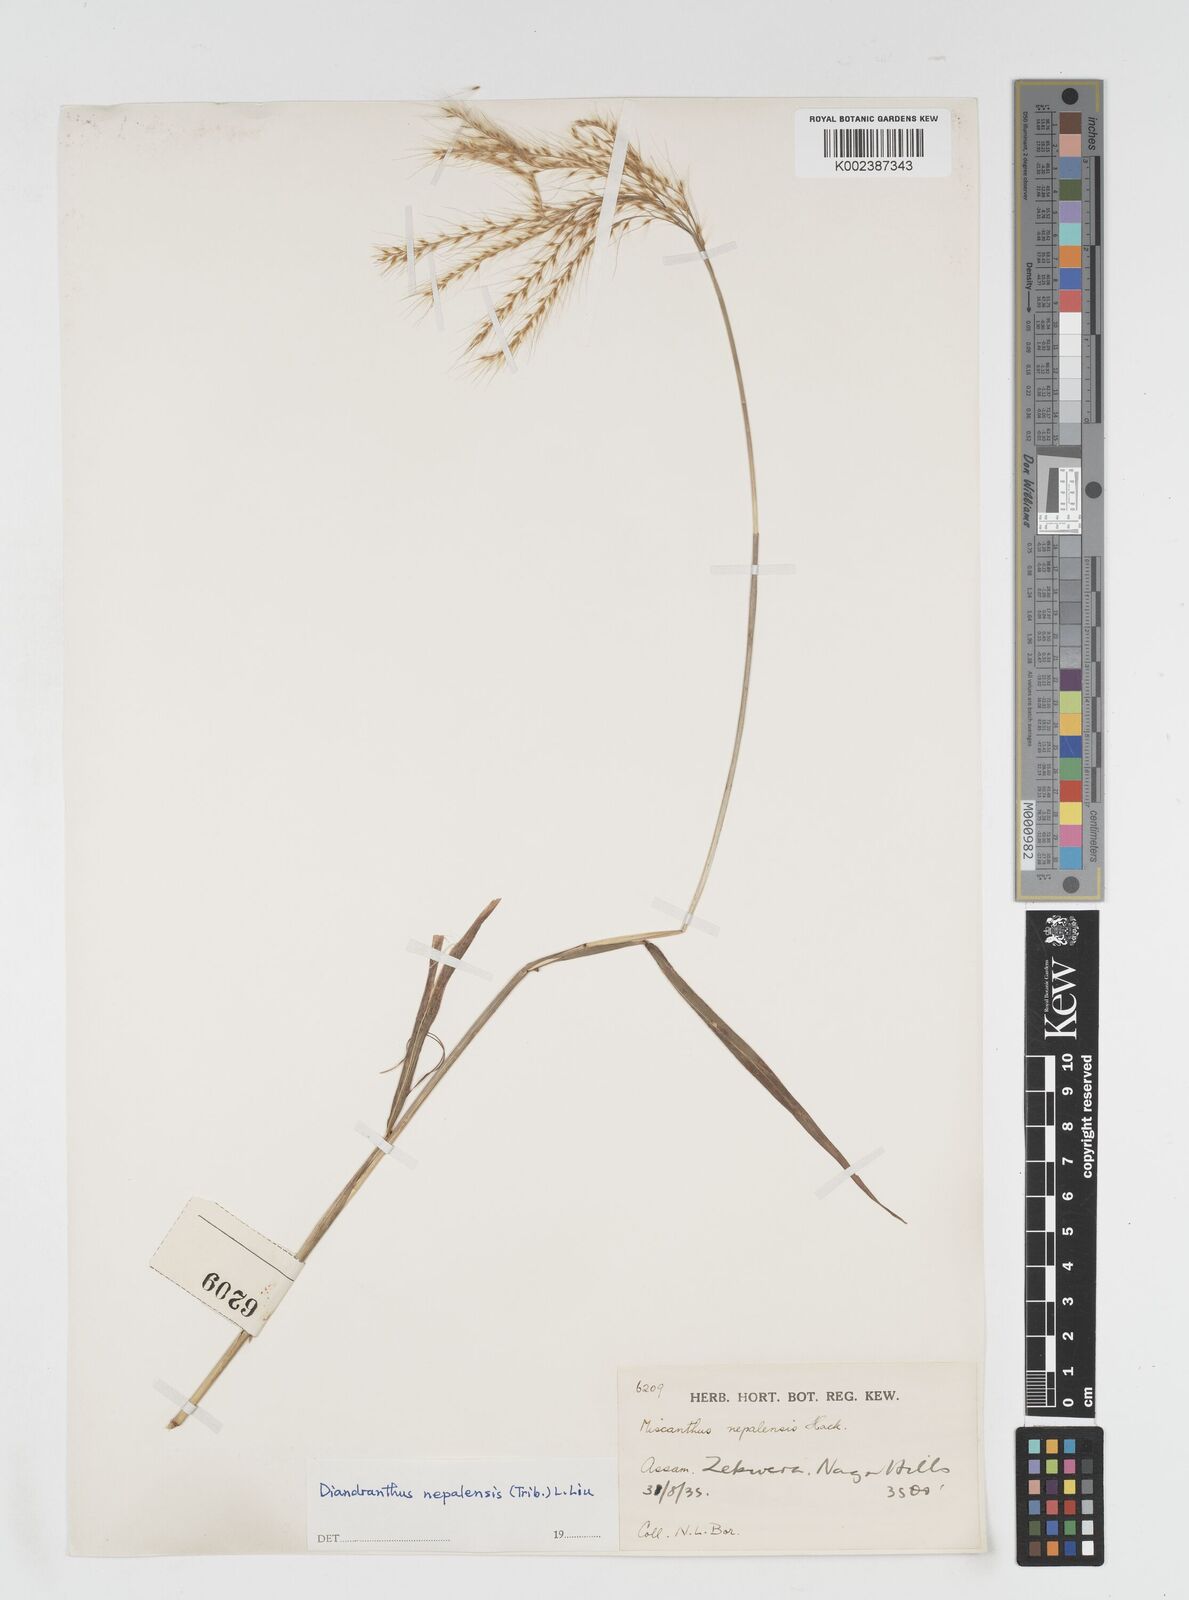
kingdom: Plantae
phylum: Tracheophyta
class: Liliopsida
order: Poales
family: Poaceae
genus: Miscanthus
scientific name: Miscanthus nepalensis
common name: Nepal silver grass
